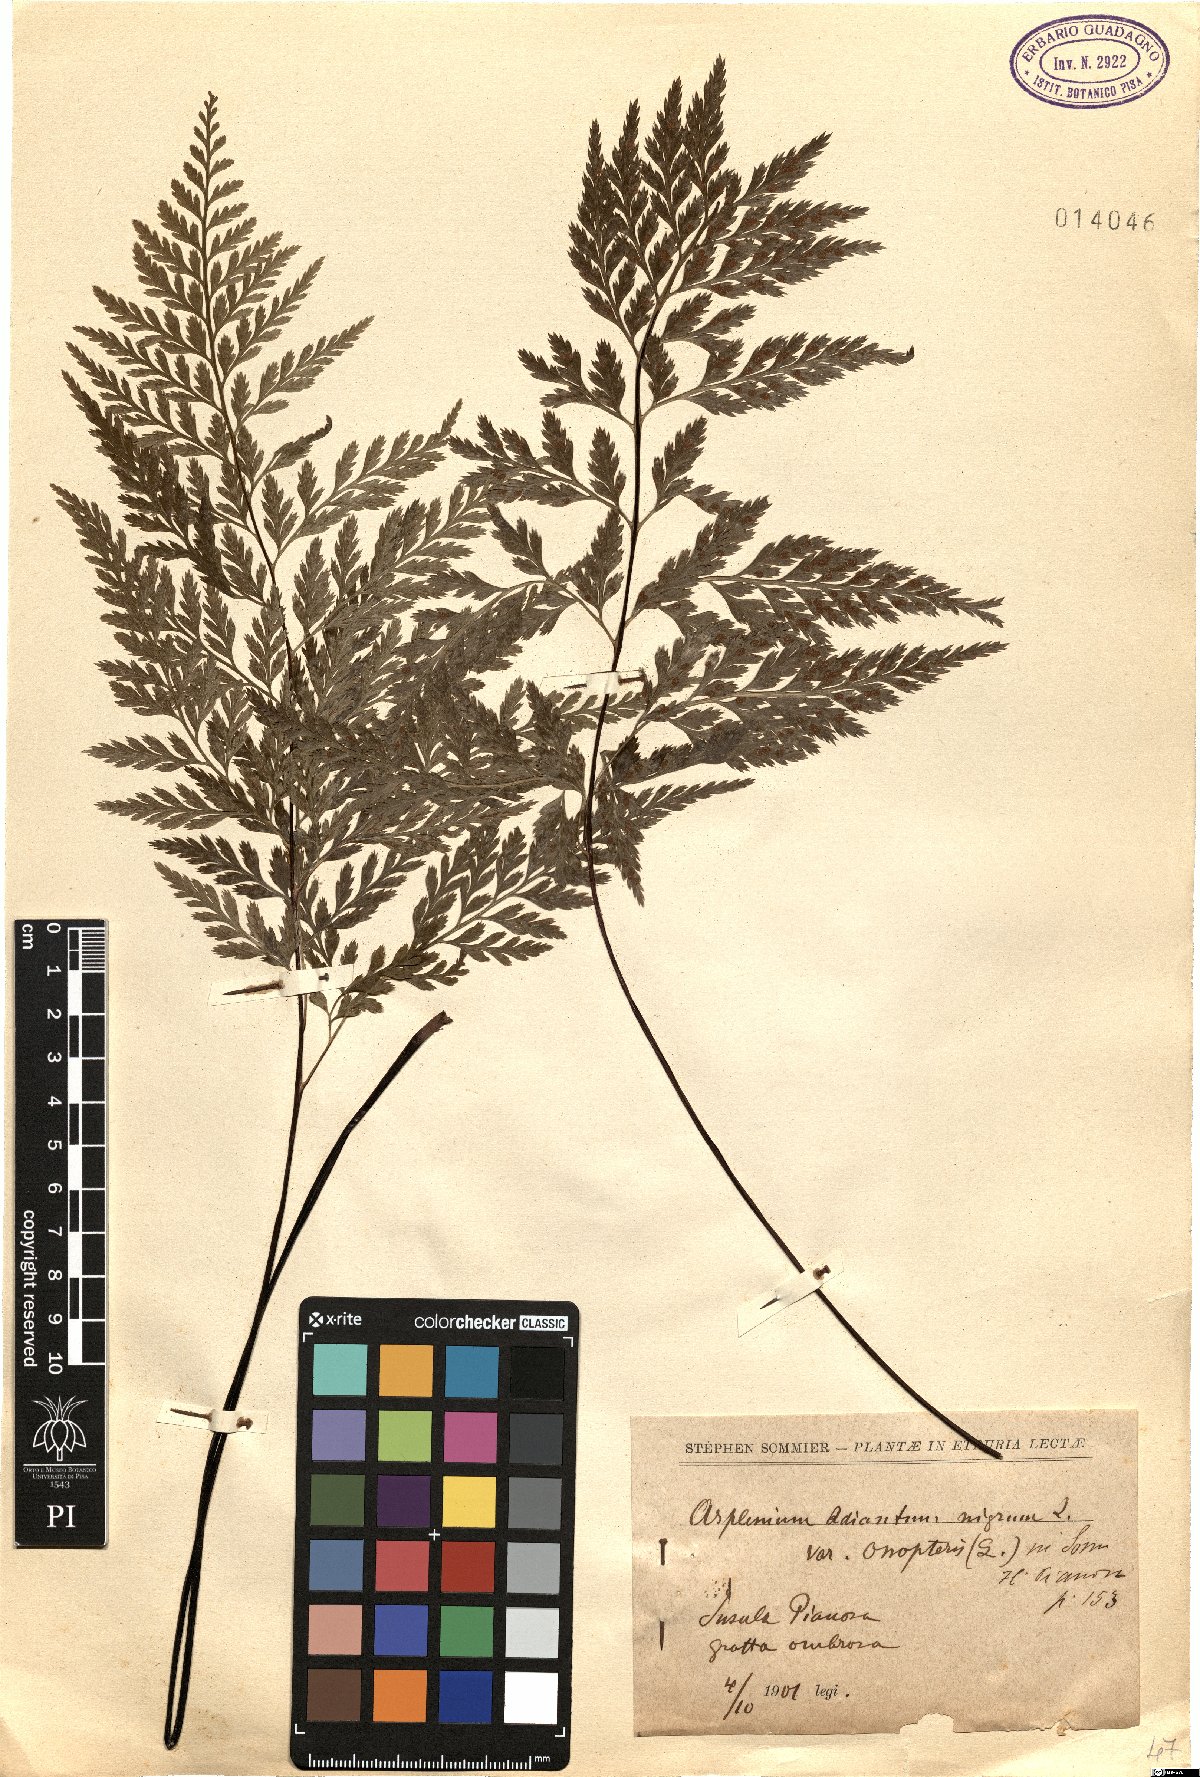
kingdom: Plantae
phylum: Tracheophyta
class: Polypodiopsida
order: Polypodiales
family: Aspleniaceae
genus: Asplenium
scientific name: Asplenium onopteris
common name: Irish spleenwort
